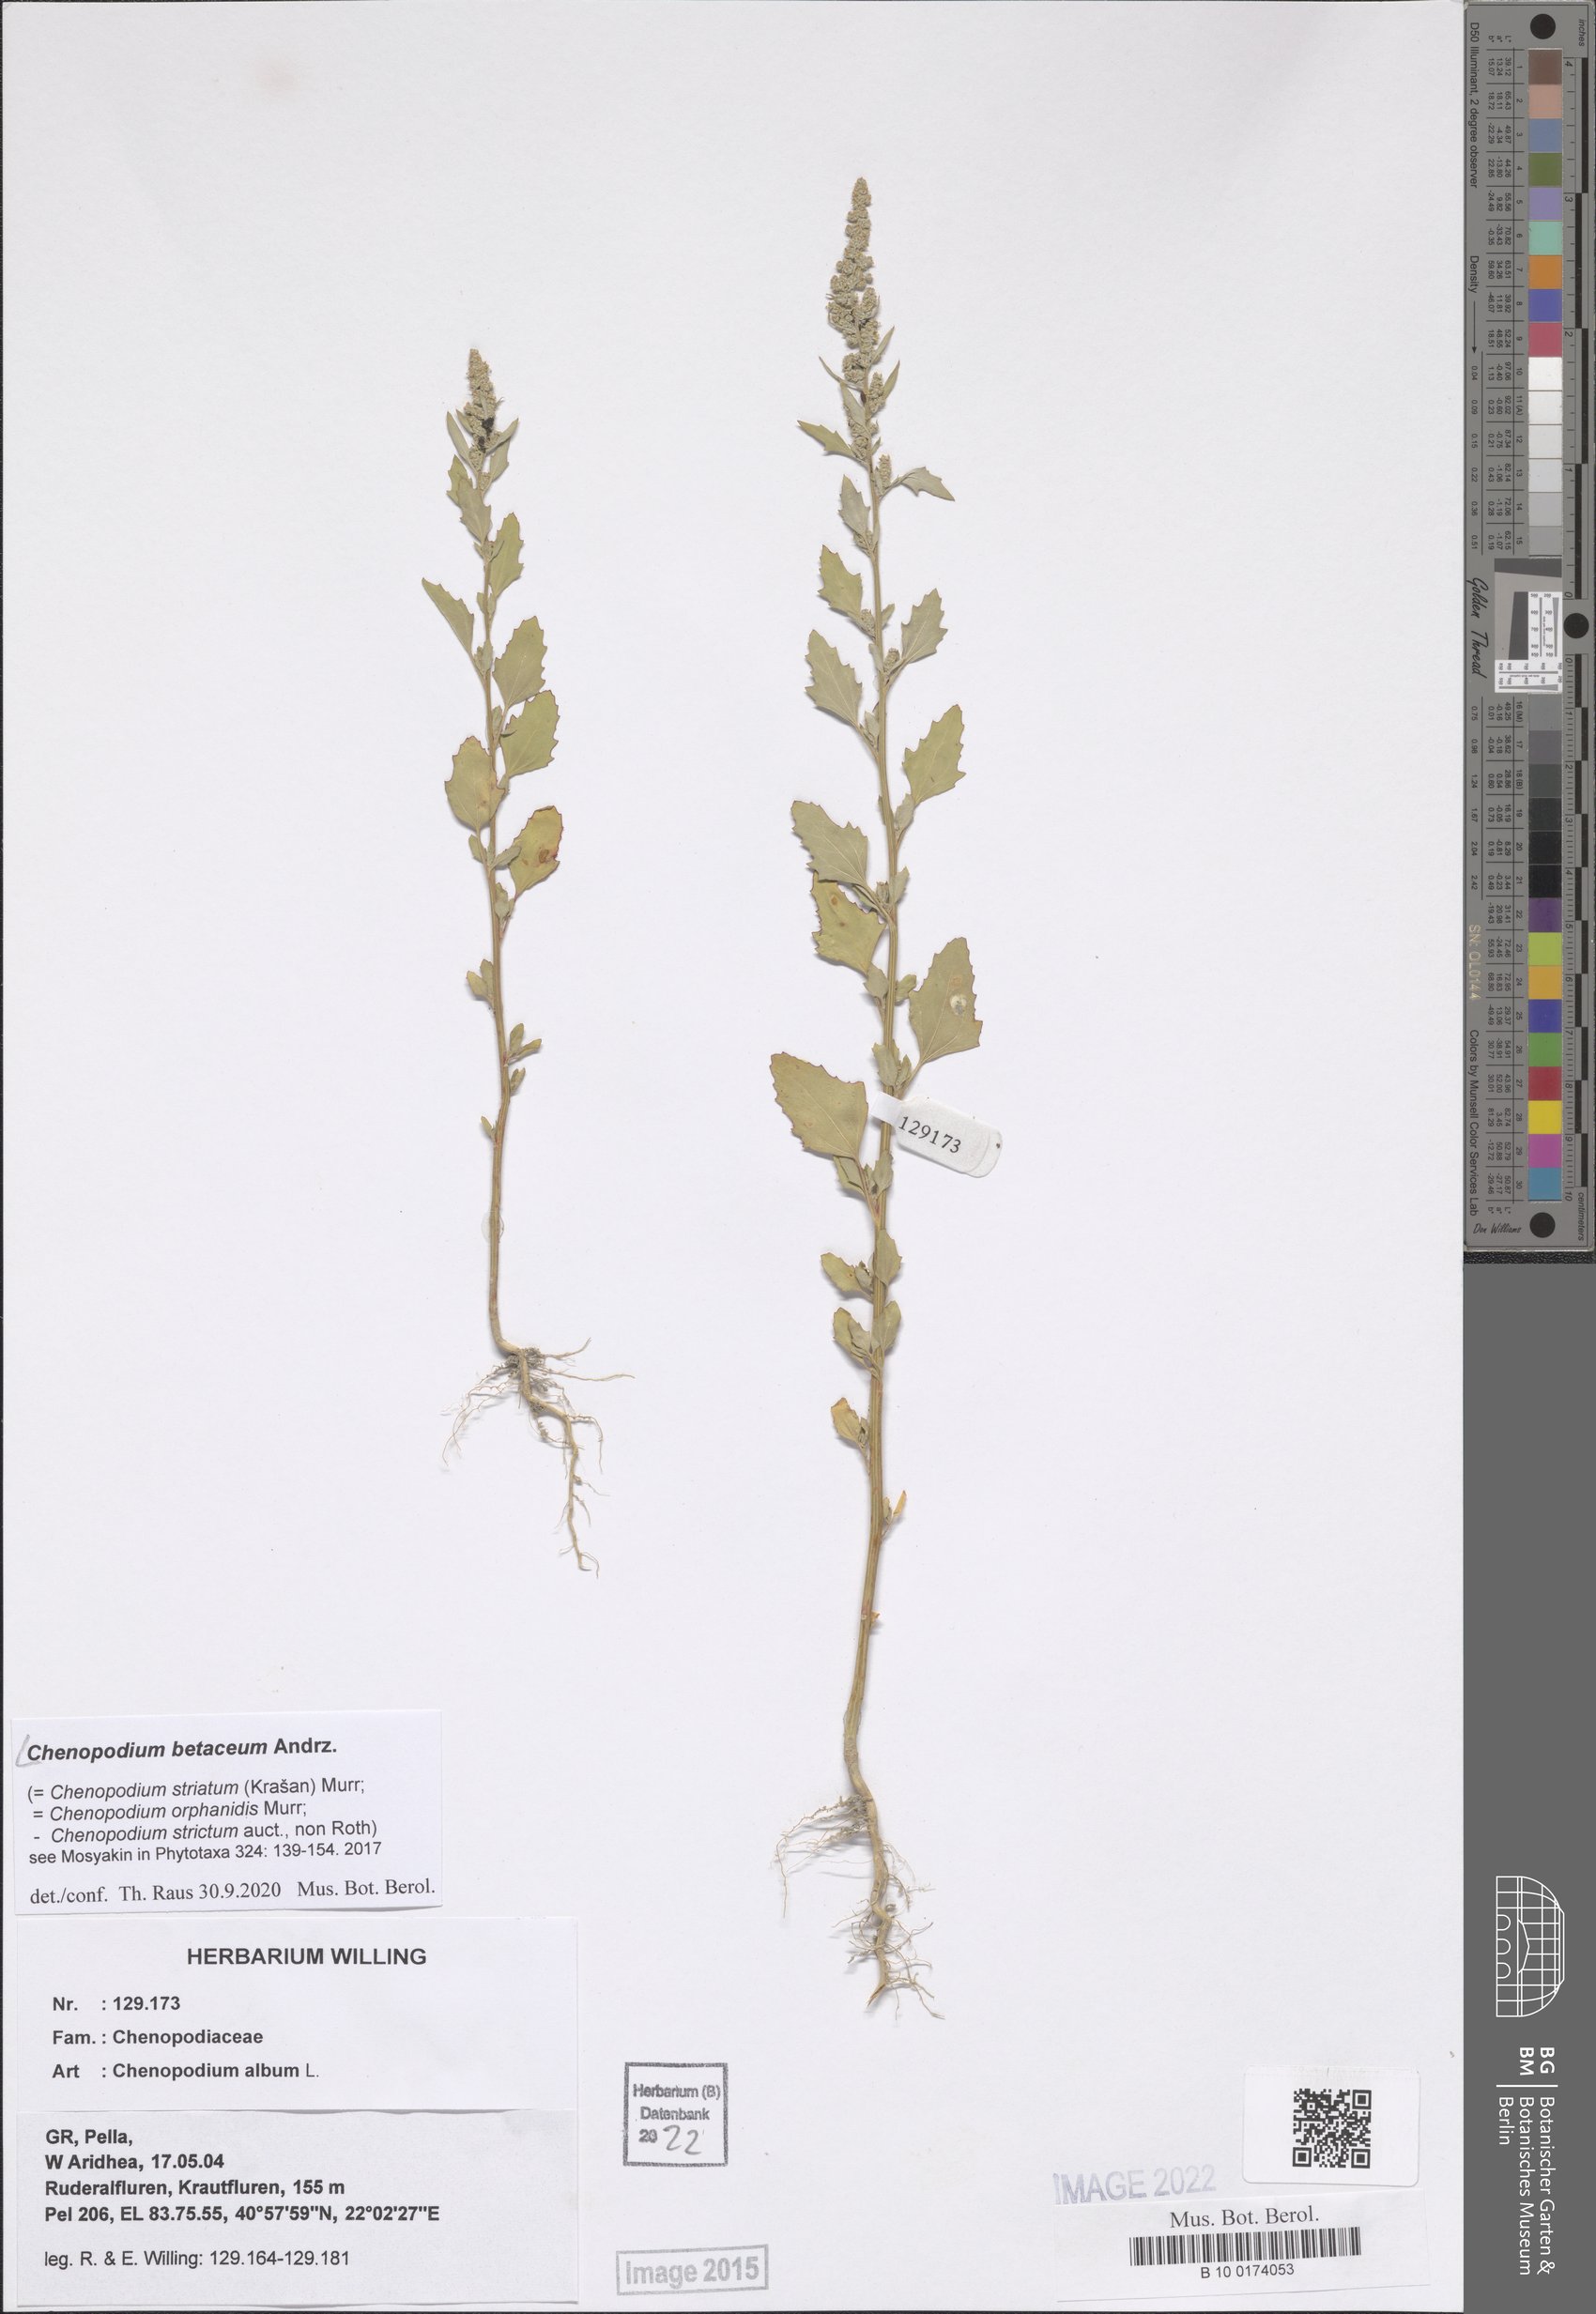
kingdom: Plantae
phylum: Tracheophyta
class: Magnoliopsida
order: Caryophyllales
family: Amaranthaceae
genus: Chenopodium
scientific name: Chenopodium betaceum
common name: Striped goosefoot
